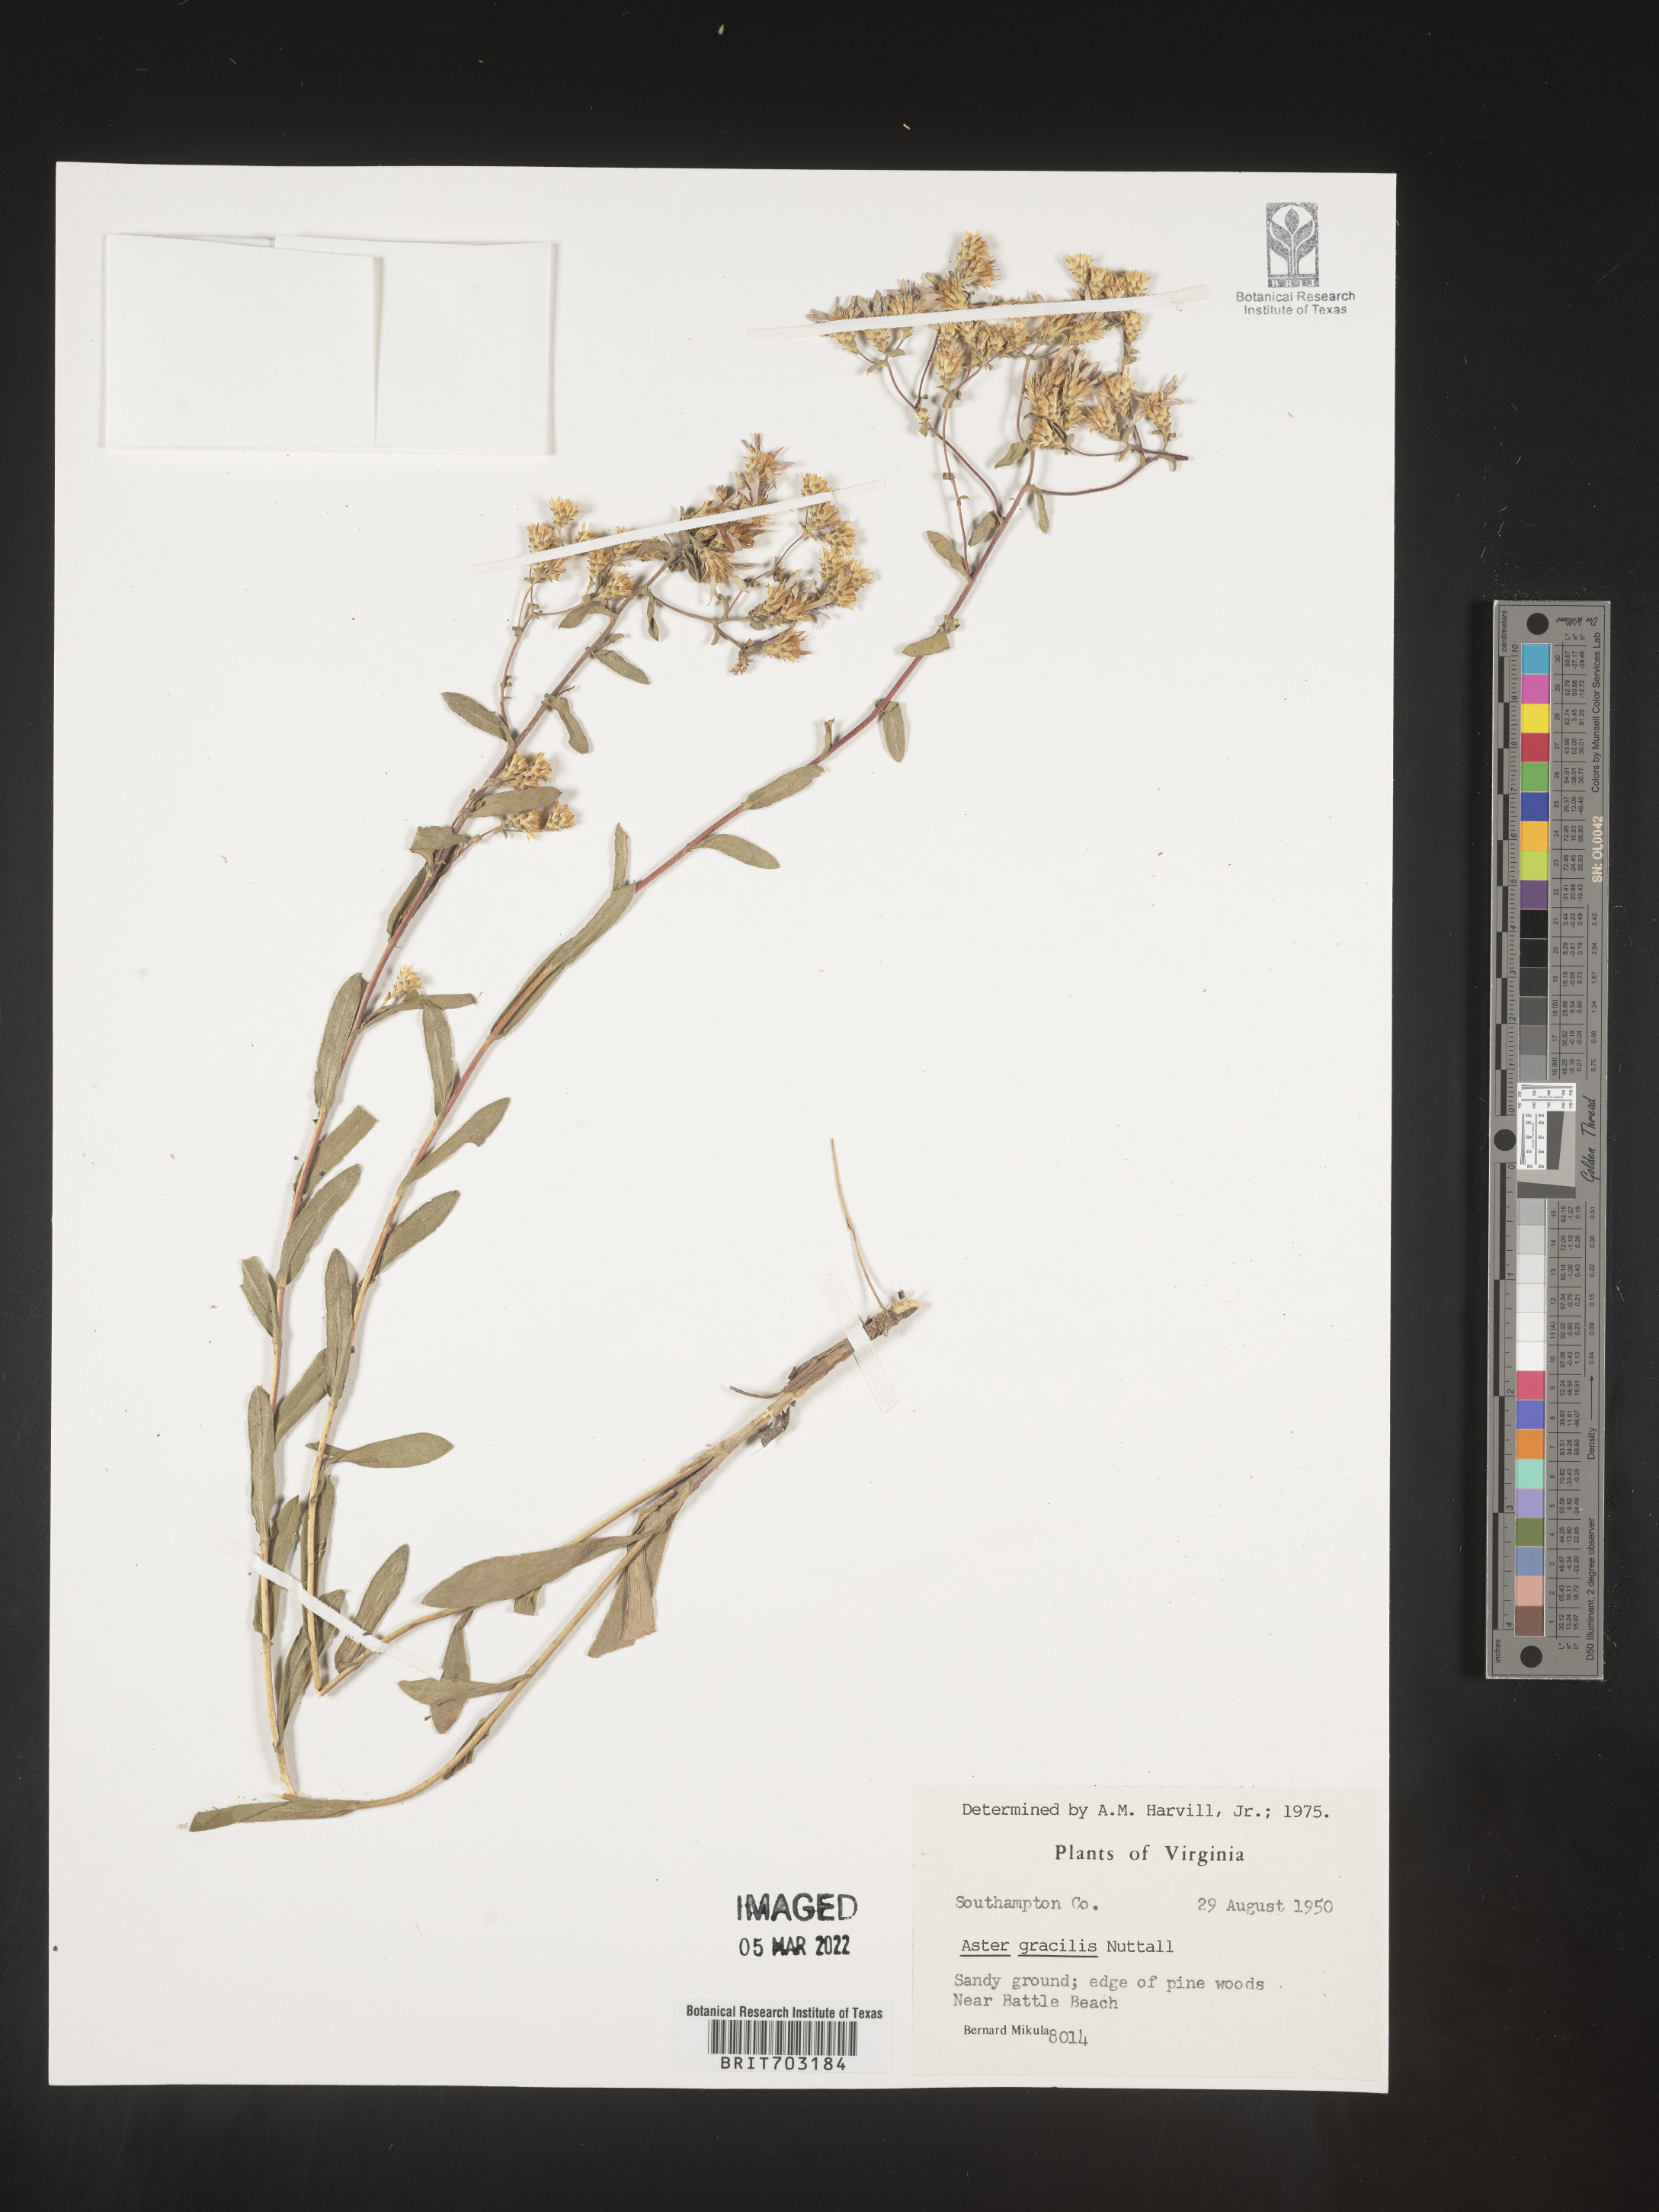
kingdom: Plantae
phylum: Tracheophyta
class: Magnoliopsida
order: Asterales
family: Asteraceae
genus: Eurybia
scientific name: Eurybia compacta
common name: Slender aster
